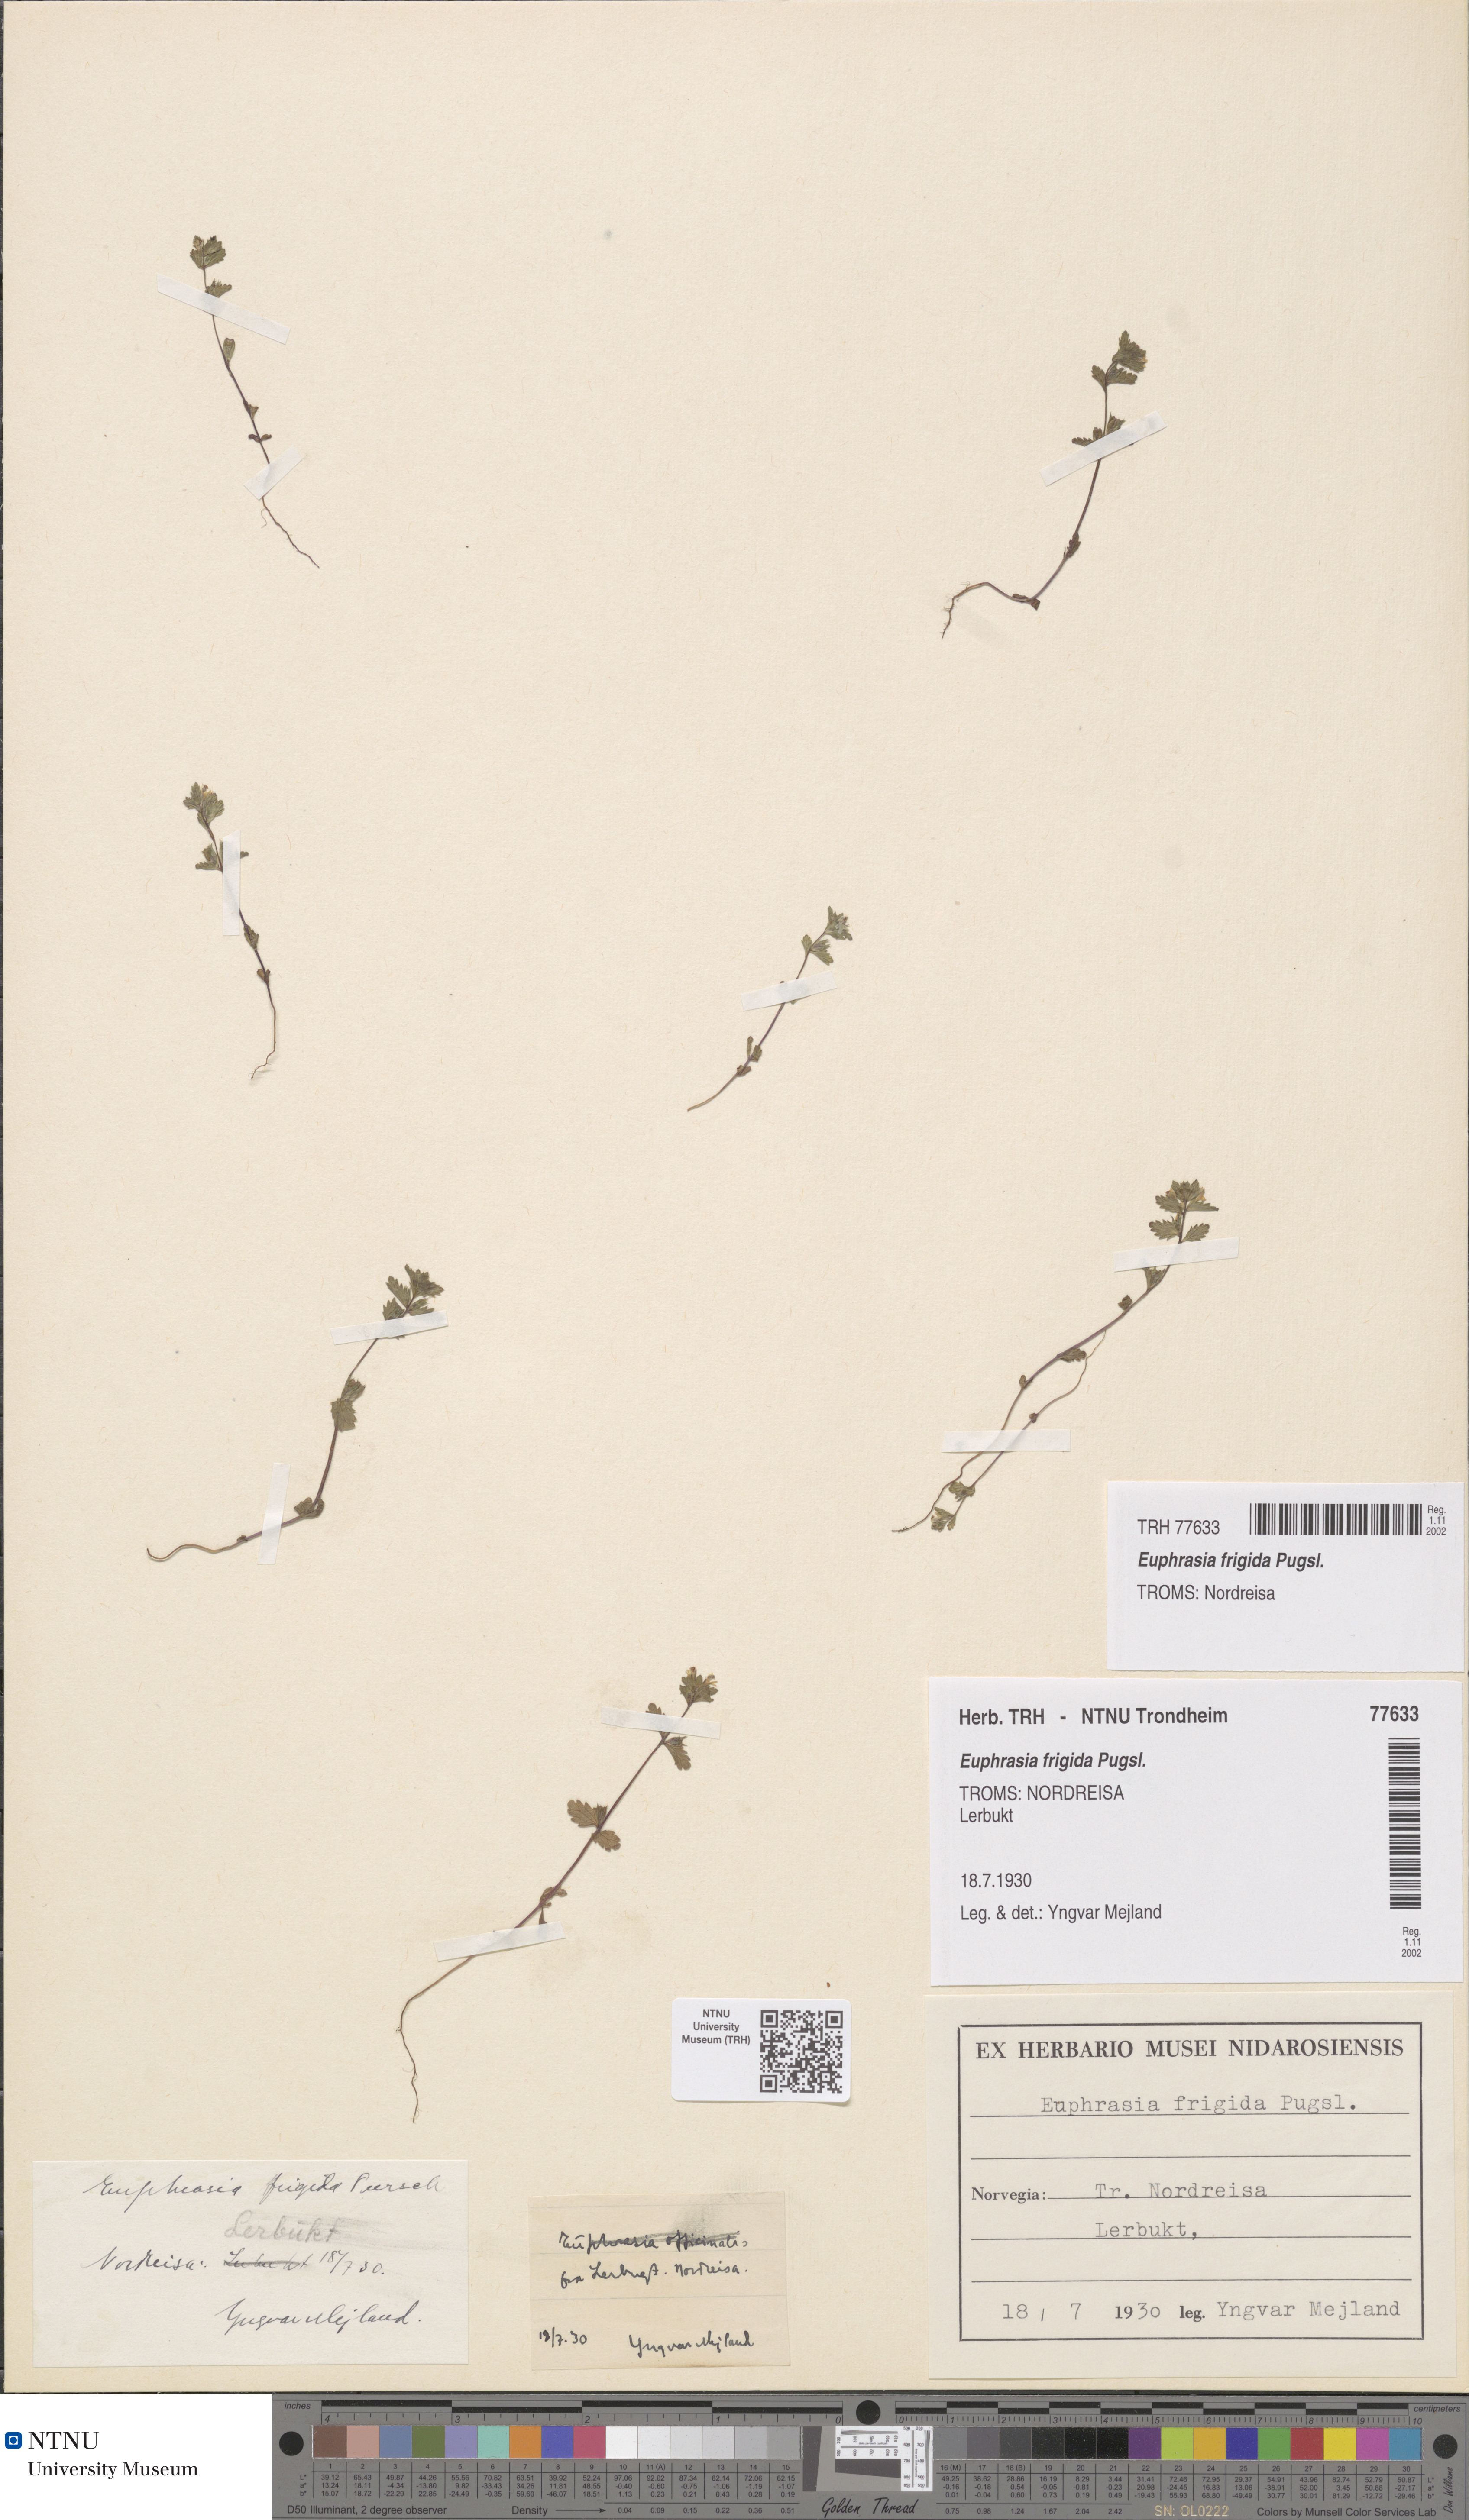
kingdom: Plantae
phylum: Tracheophyta
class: Magnoliopsida
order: Lamiales
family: Orobanchaceae
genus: Euphrasia
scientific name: Euphrasia wettsteinii
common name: Wettstein's eyebright
